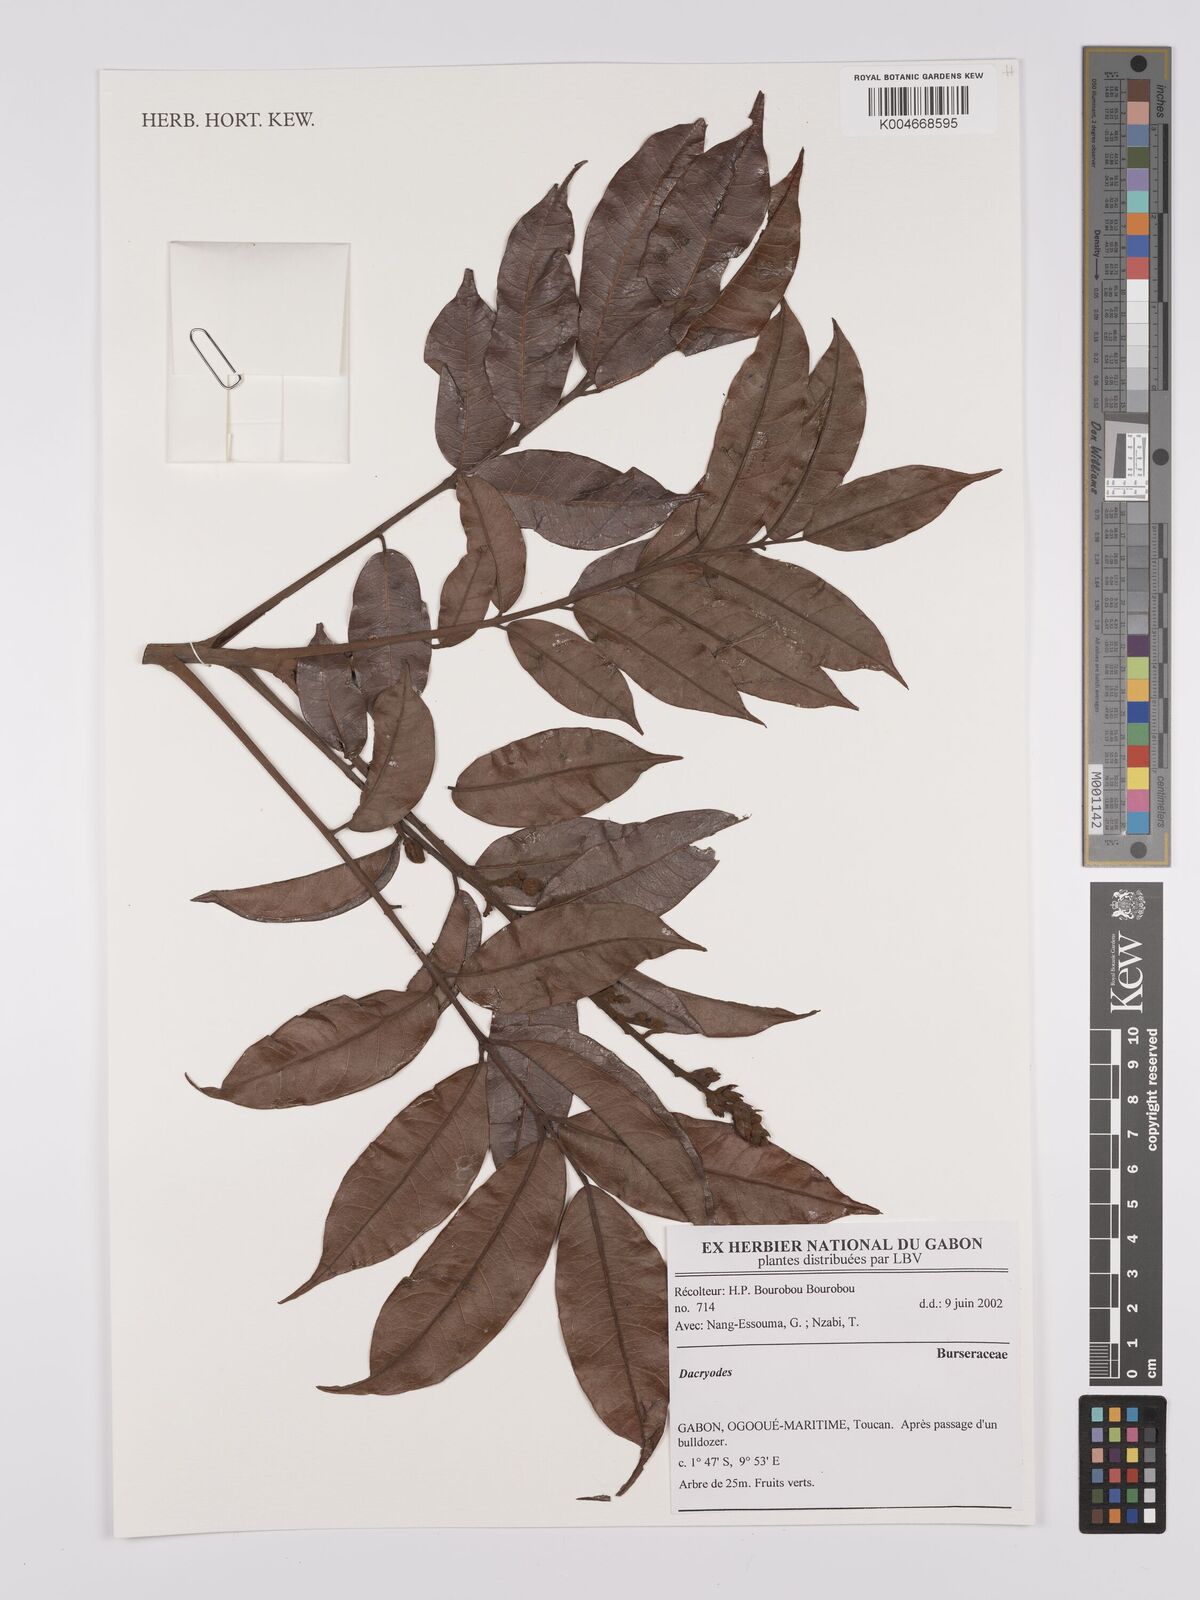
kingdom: Plantae
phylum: Tracheophyta
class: Magnoliopsida
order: Sapindales
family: Burseraceae
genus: Dacryodes
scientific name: Dacryodes
